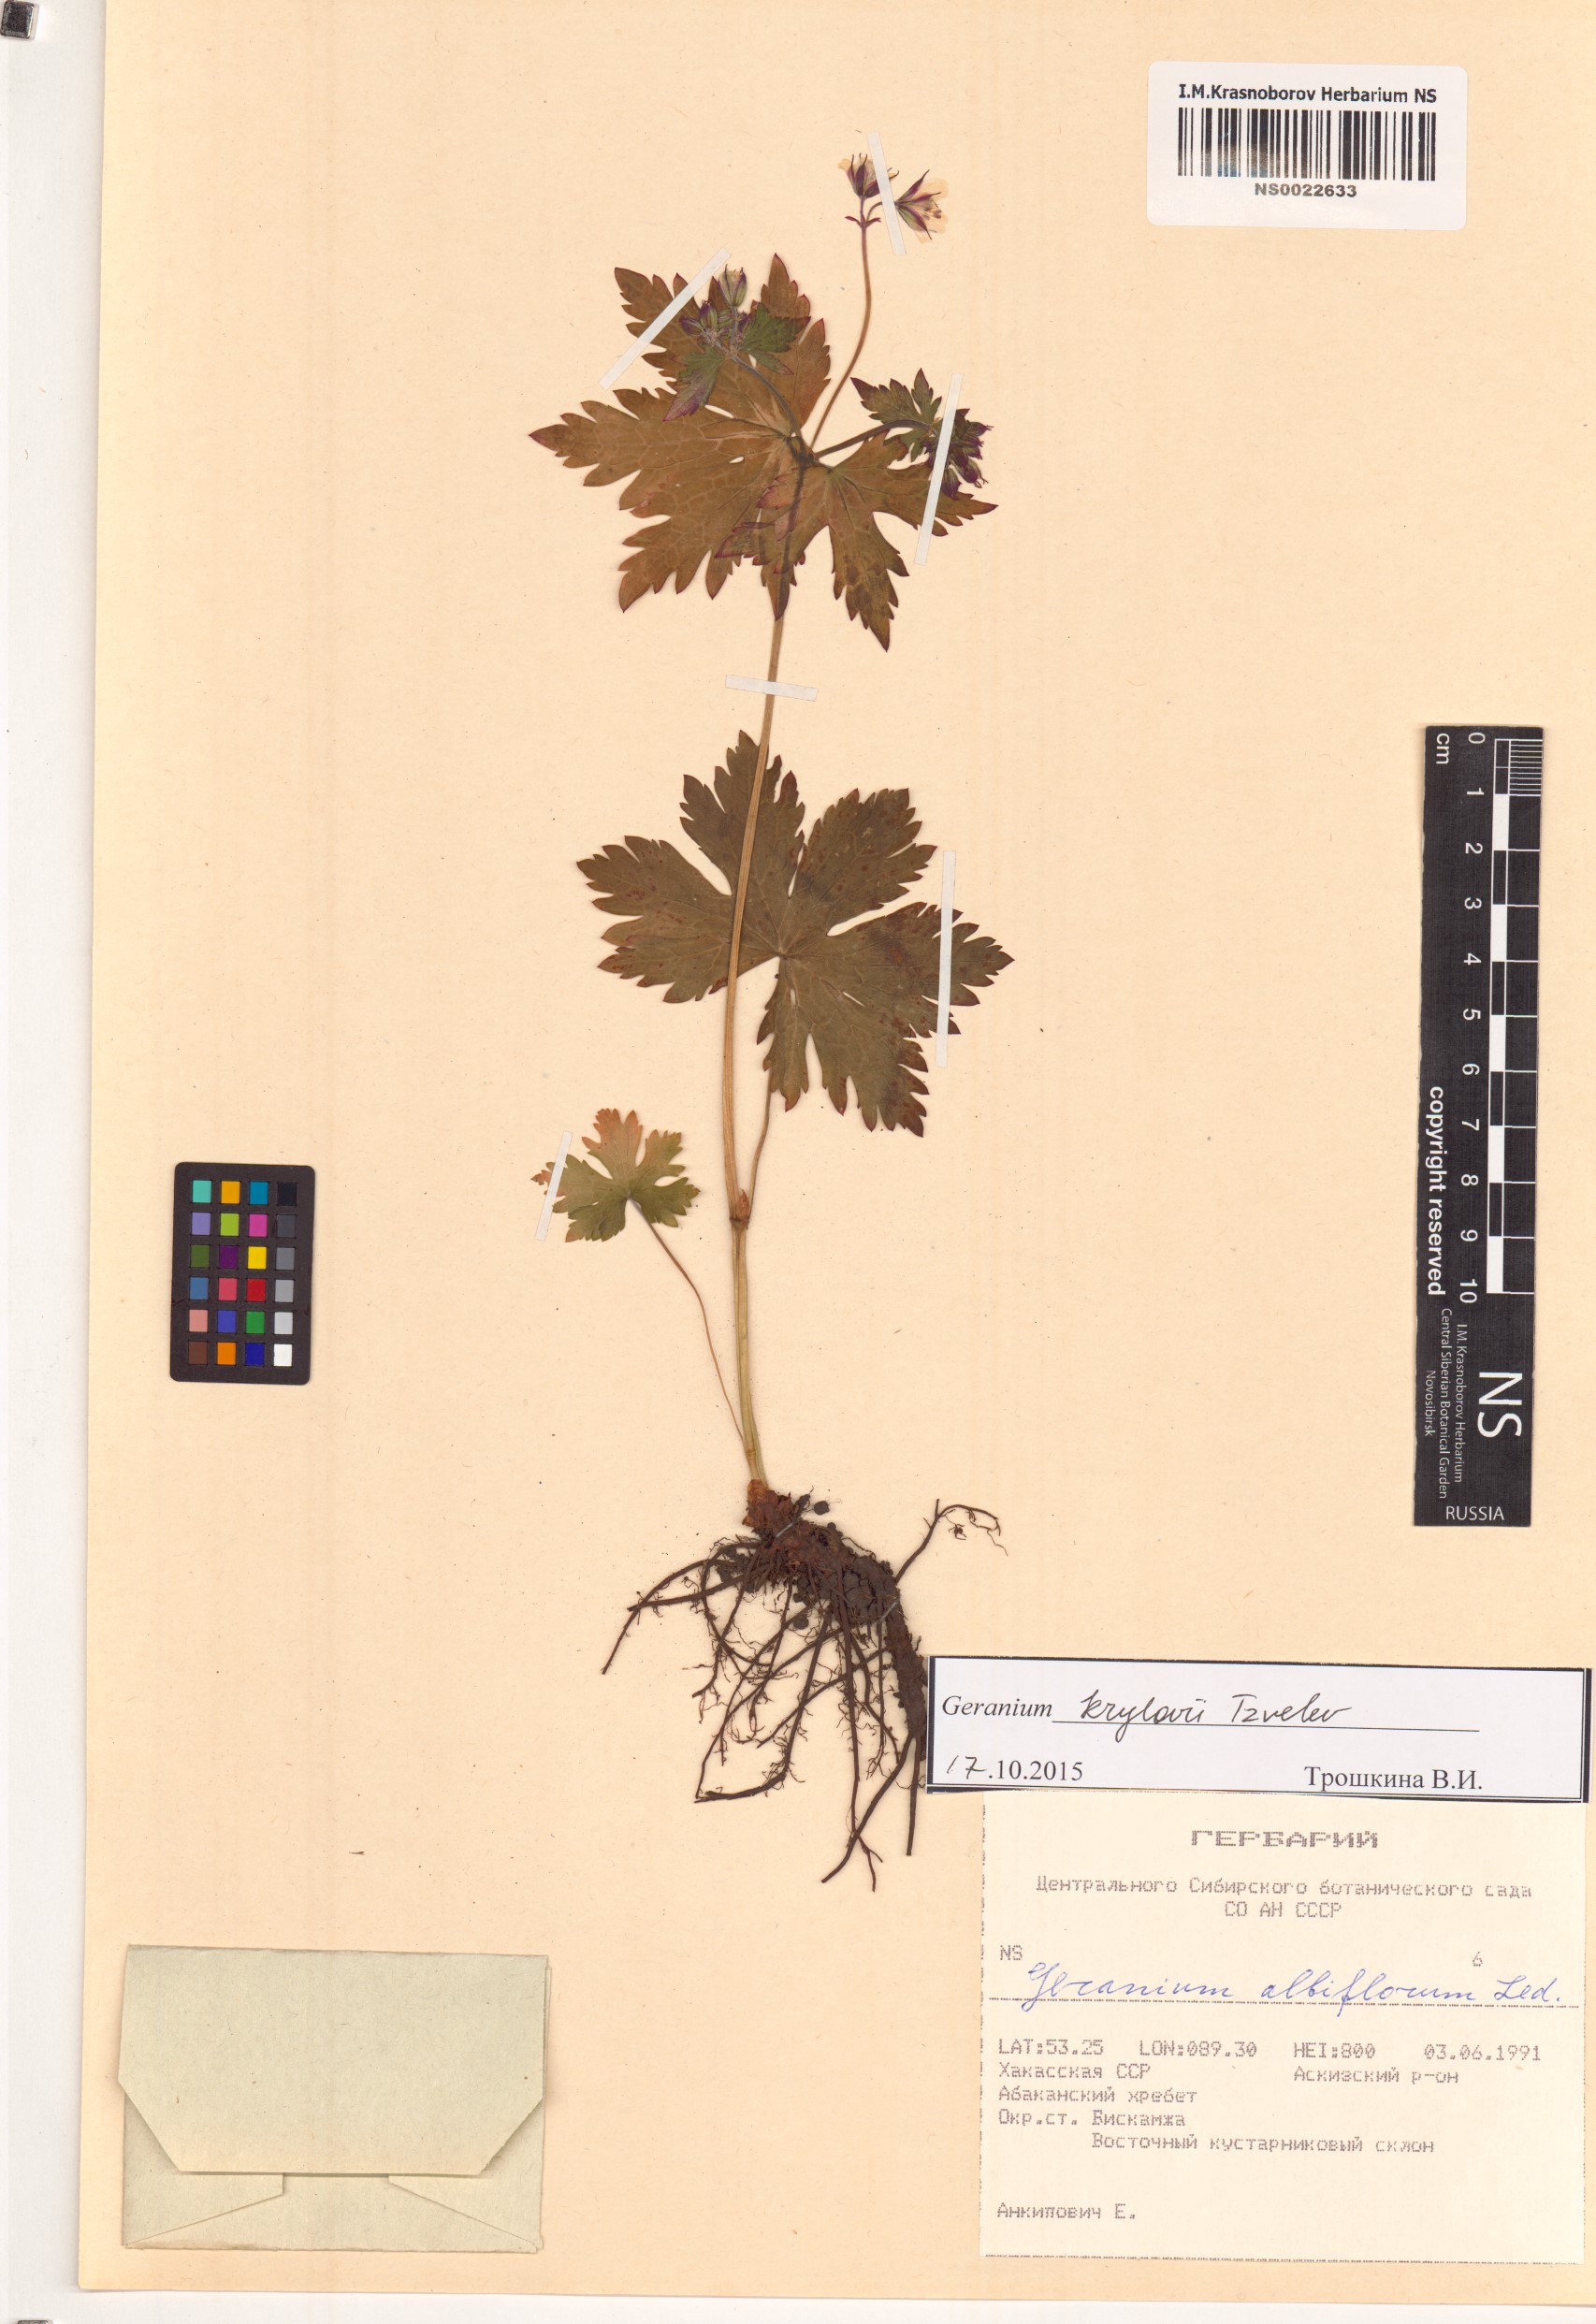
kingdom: Plantae
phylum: Tracheophyta
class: Magnoliopsida
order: Geraniales
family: Geraniaceae
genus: Geranium
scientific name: Geranium sylvaticum
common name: Wood crane's-bill
